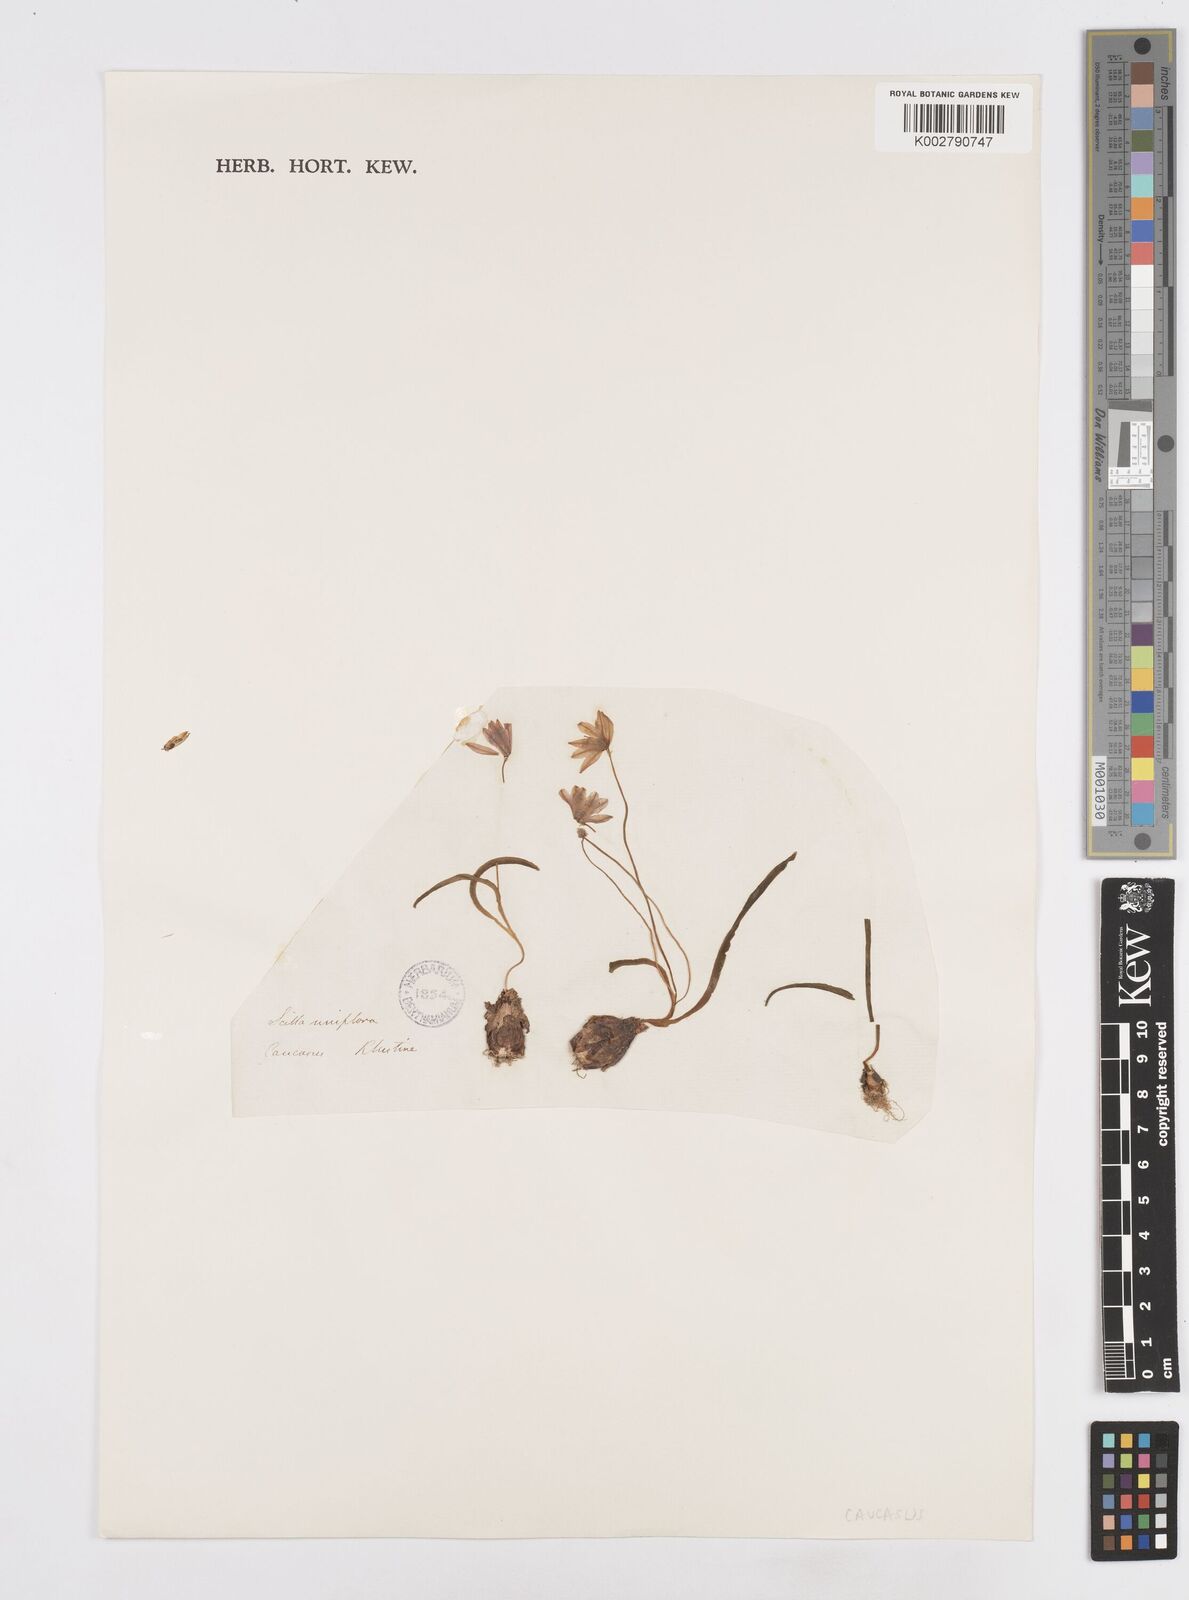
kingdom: Plantae
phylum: Tracheophyta
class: Liliopsida
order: Asparagales
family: Asparagaceae
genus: Scilla
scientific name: Scilla monanthos
